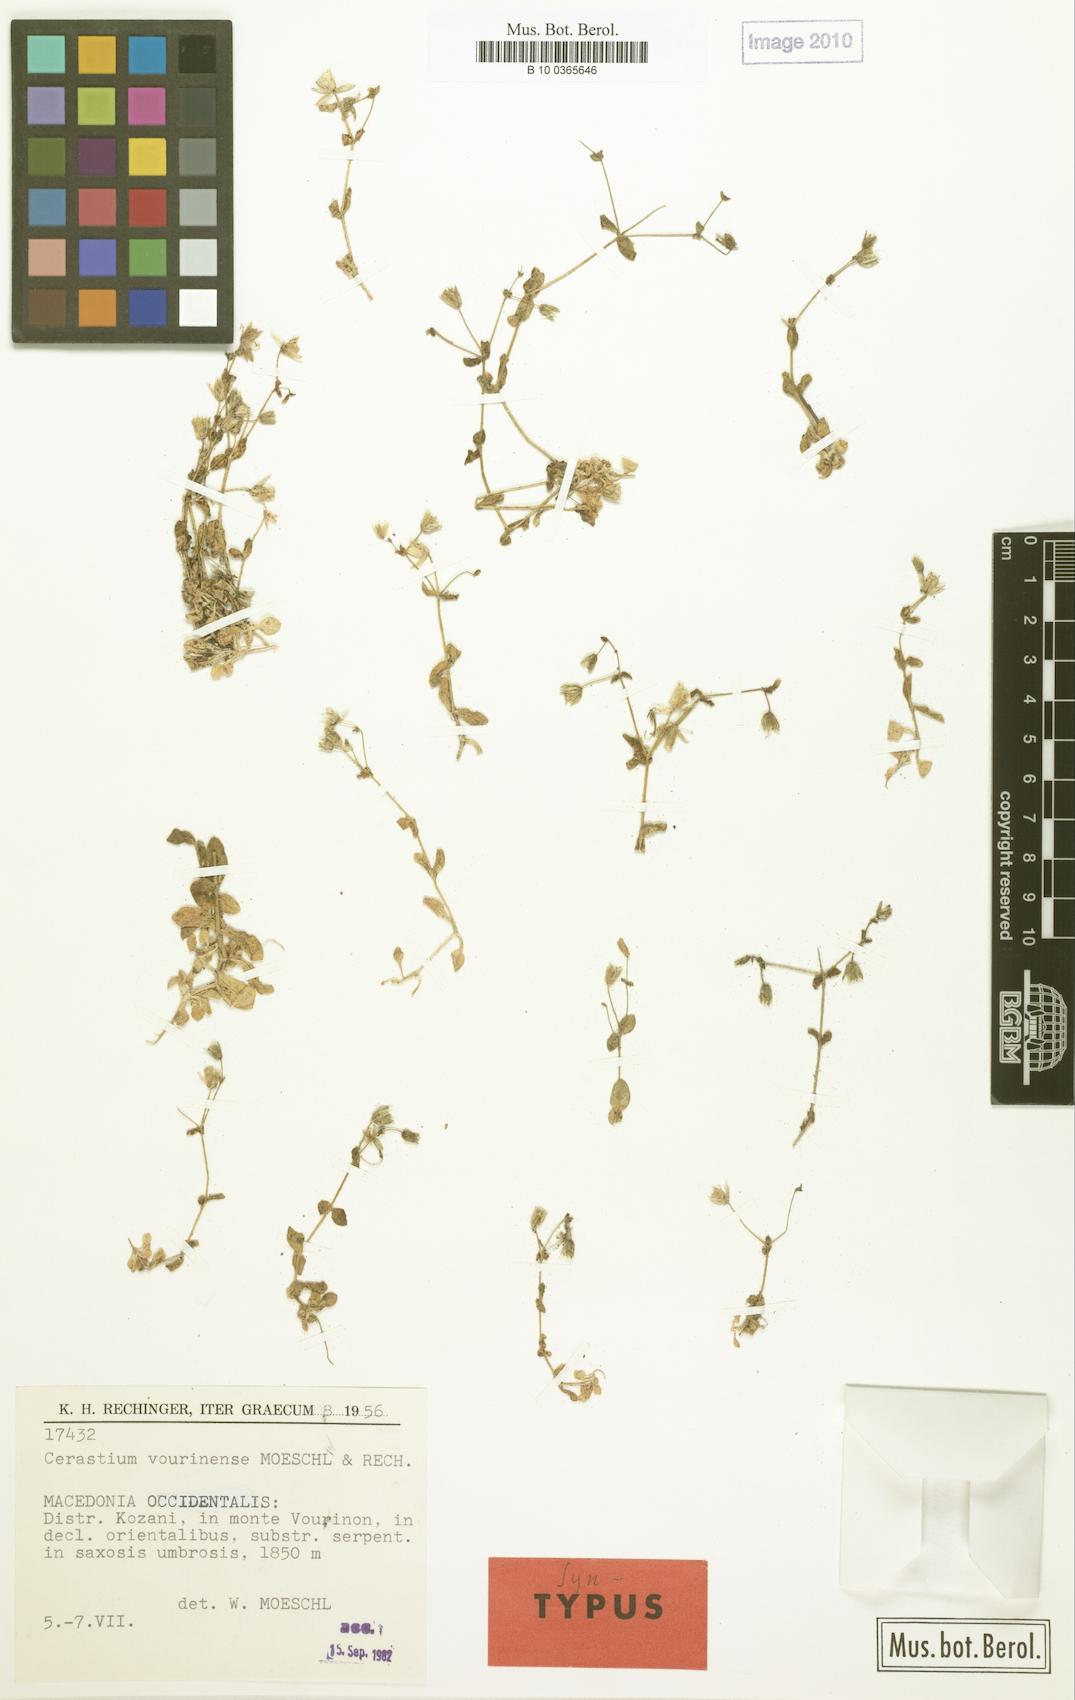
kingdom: Plantae
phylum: Tracheophyta
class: Magnoliopsida
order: Caryophyllales
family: Caryophyllaceae
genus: Cerastium
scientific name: Cerastium vourinense
